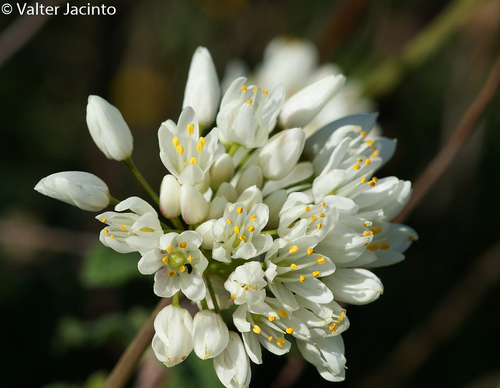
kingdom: Plantae
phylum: Tracheophyta
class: Liliopsida
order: Asparagales
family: Amaryllidaceae
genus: Allium
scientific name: Allium neapolitanum
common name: Neapolitan garlic
